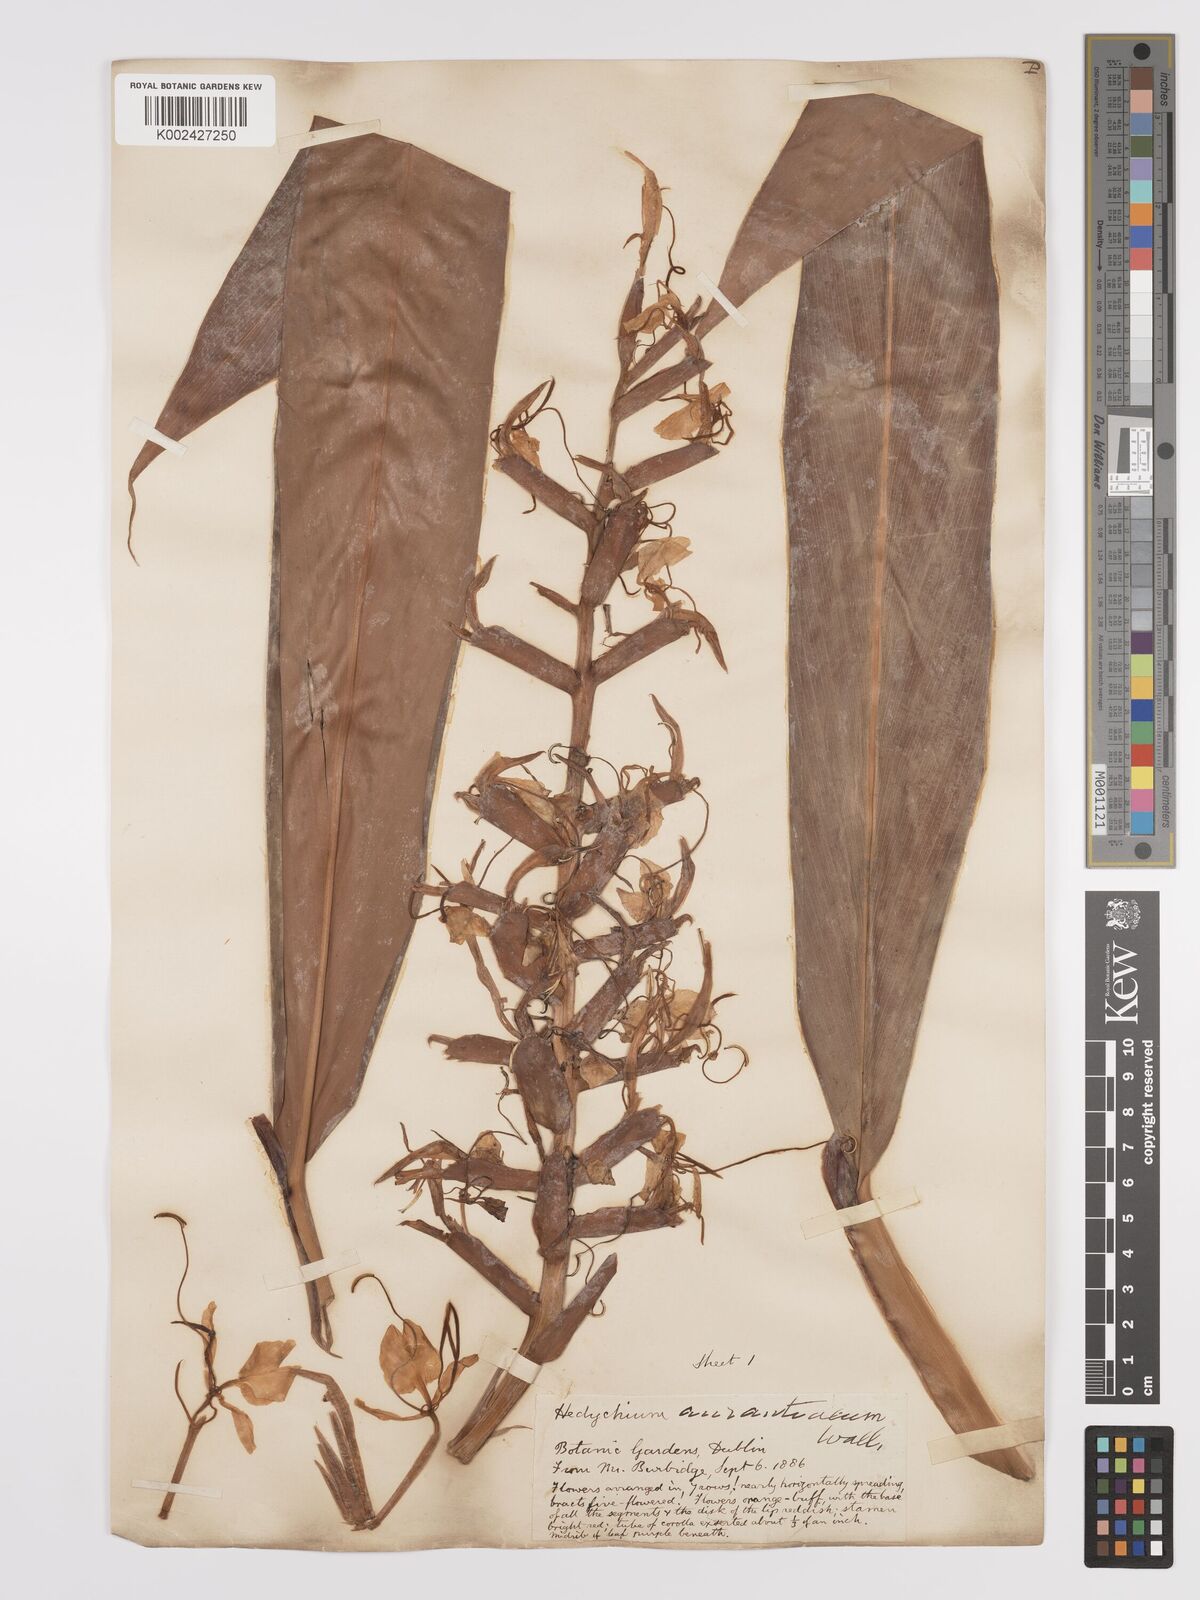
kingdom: Plantae
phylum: Tracheophyta
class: Liliopsida
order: Zingiberales
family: Zingiberaceae
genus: Hedychium
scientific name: Hedychium coccineum
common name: Red ginger-lily
